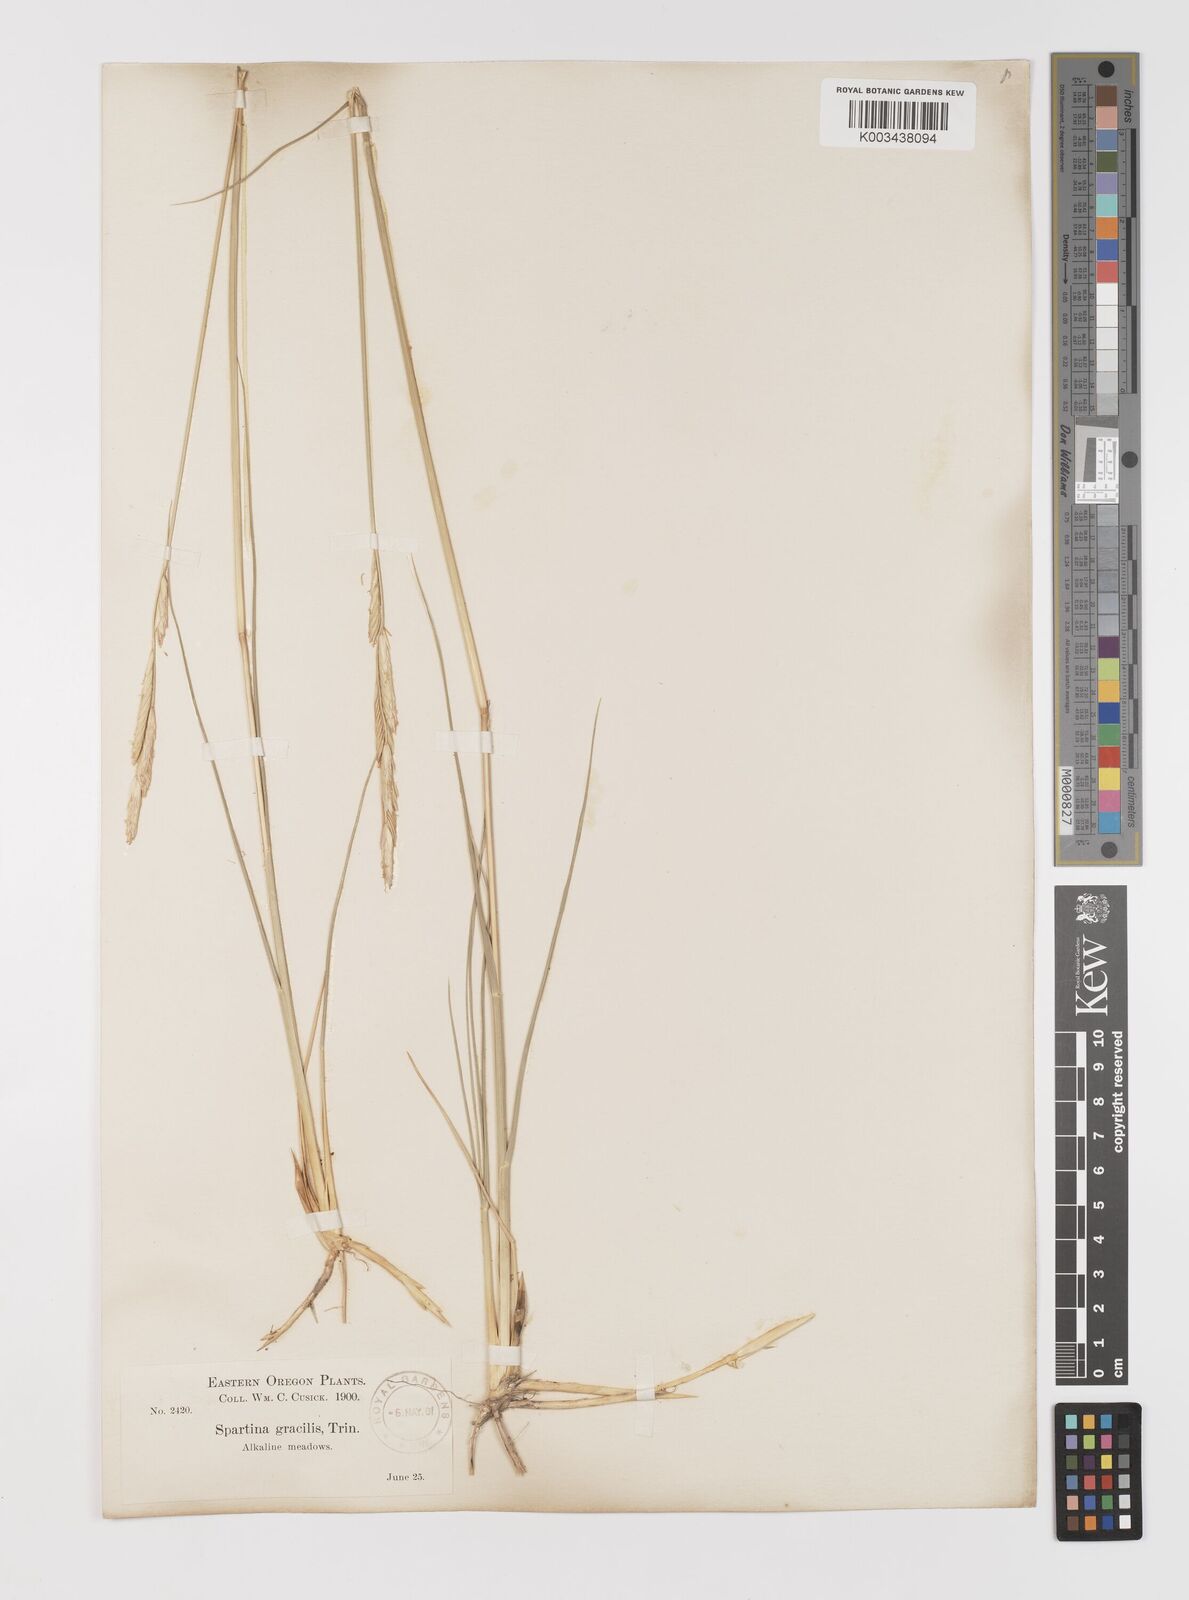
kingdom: Plantae
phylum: Tracheophyta
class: Liliopsida
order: Poales
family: Poaceae
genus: Sporobolus
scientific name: Sporobolus hookerianus
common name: Alkali cordgrass
